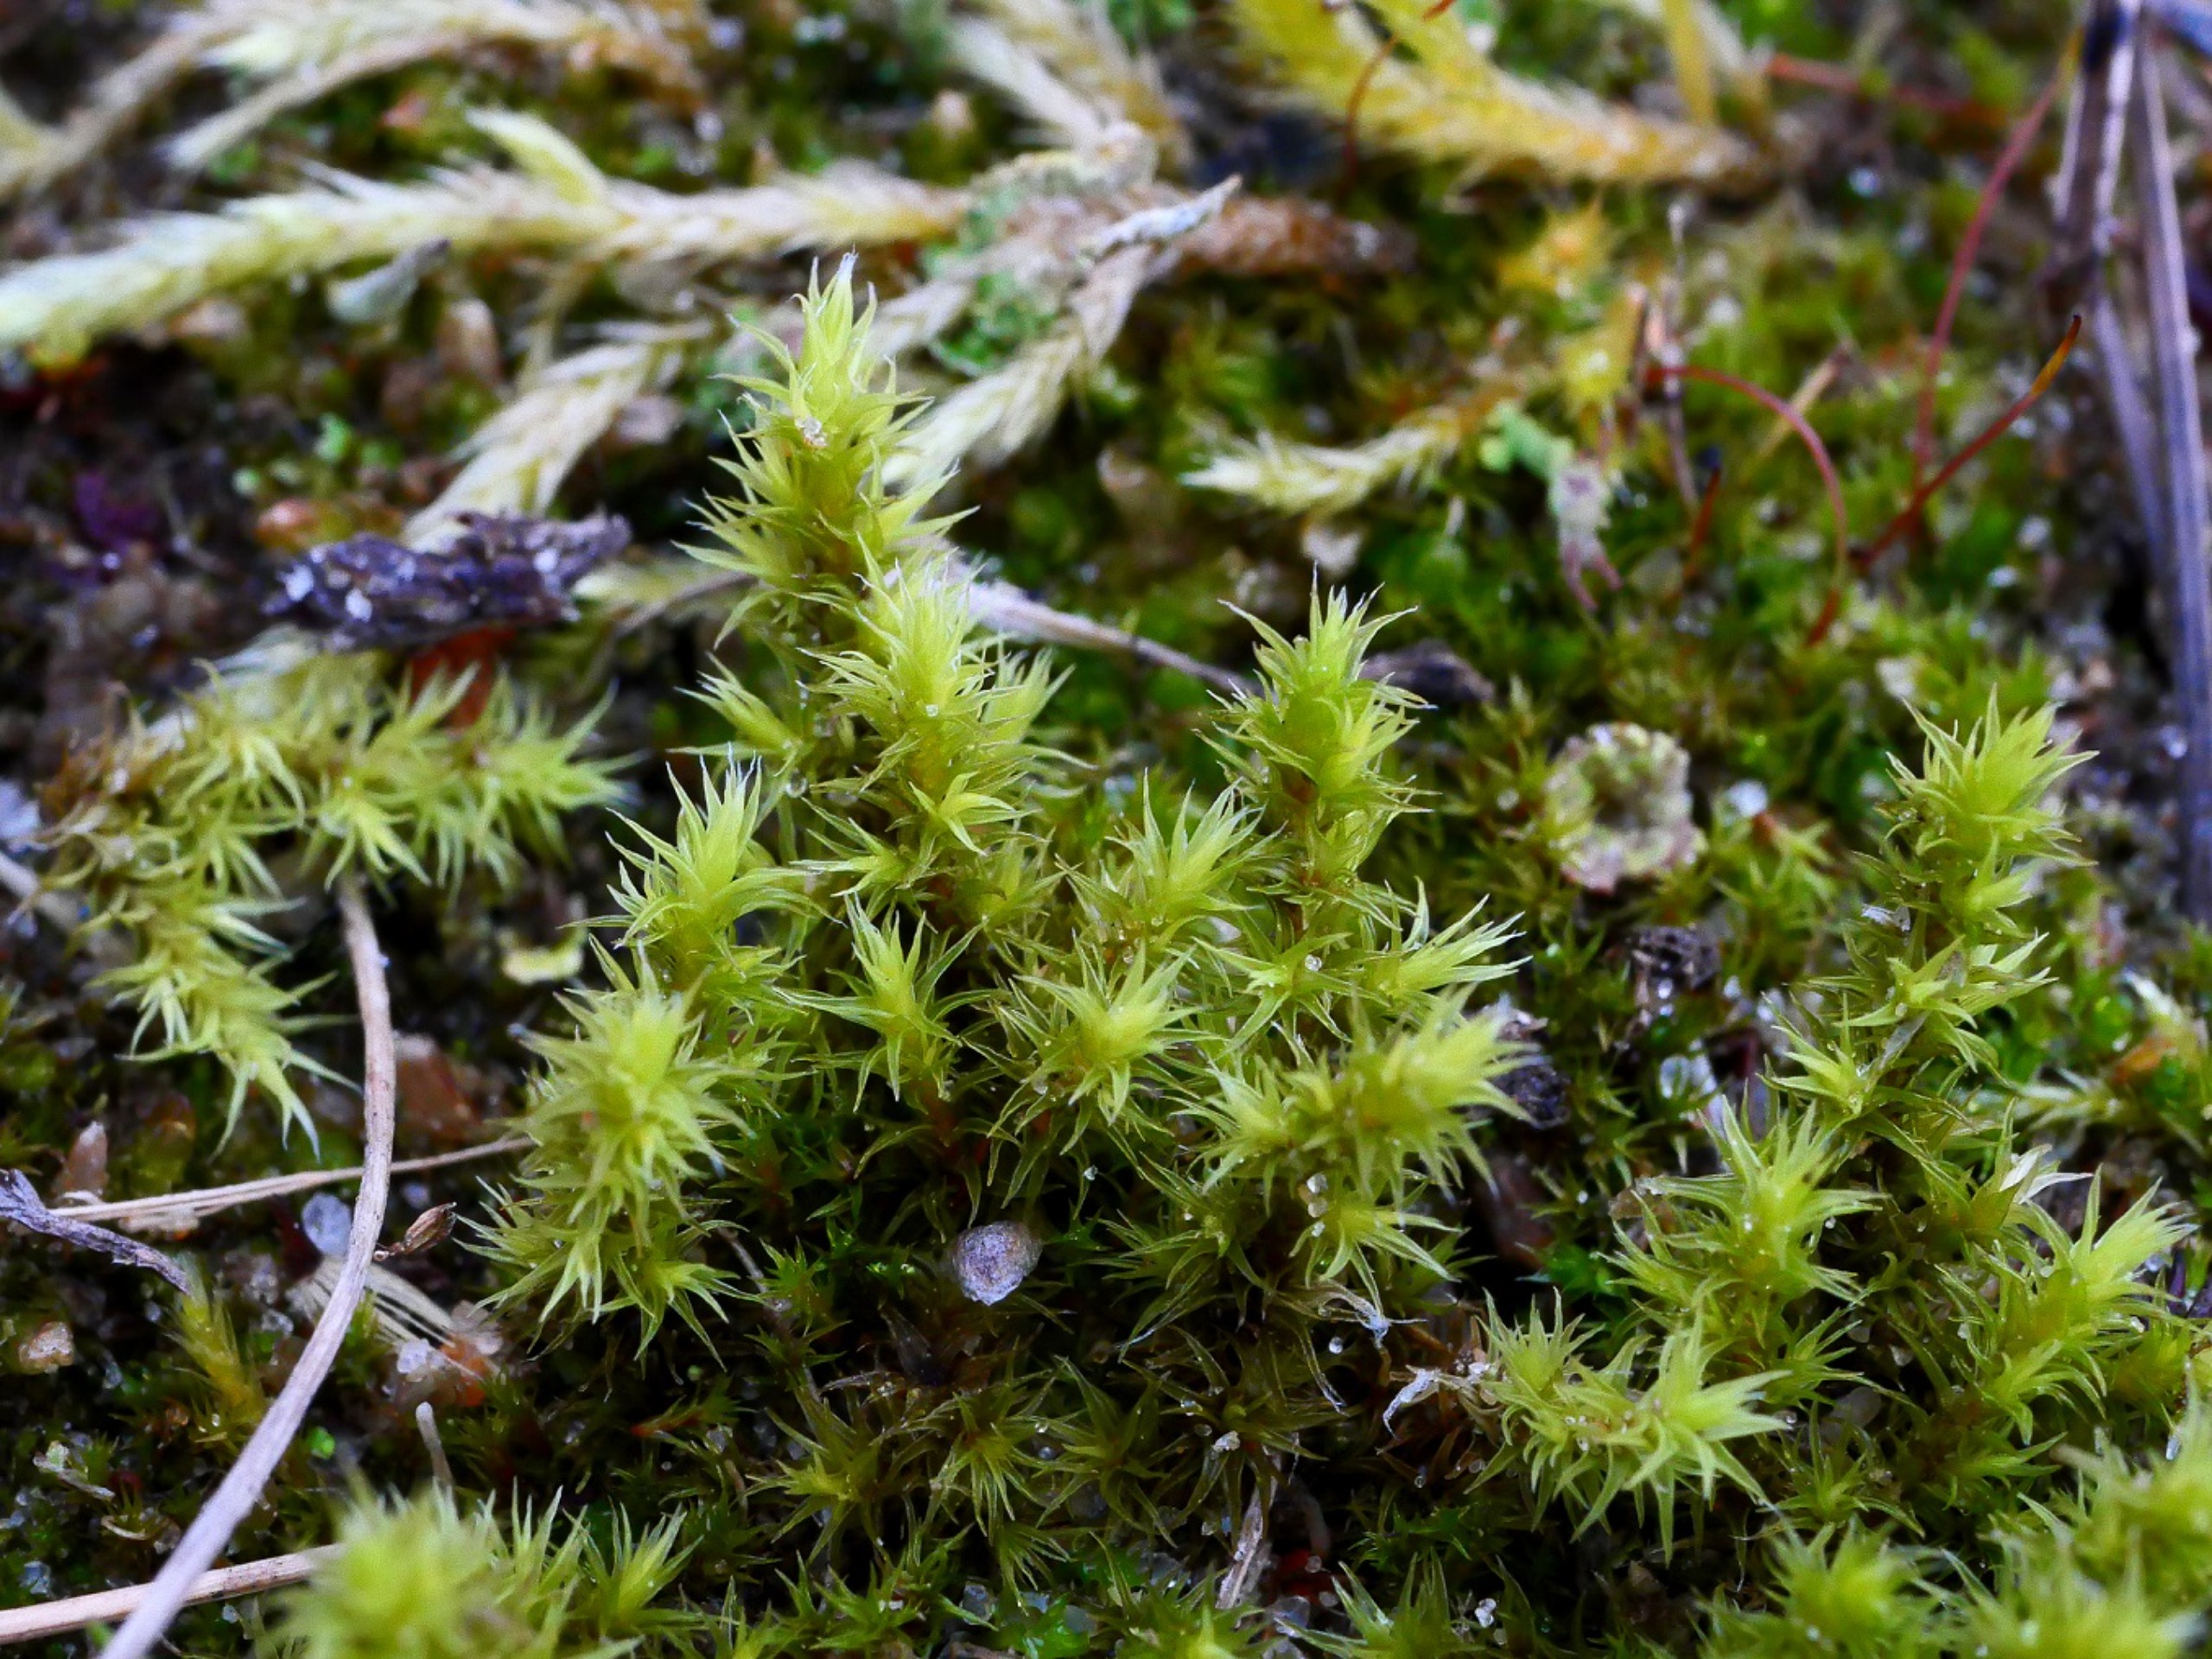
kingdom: Plantae
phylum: Bryophyta
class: Bryopsida
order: Grimmiales
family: Grimmiaceae
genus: Niphotrichum
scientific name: Niphotrichum ericoides
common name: Tætgrenet børstemos
